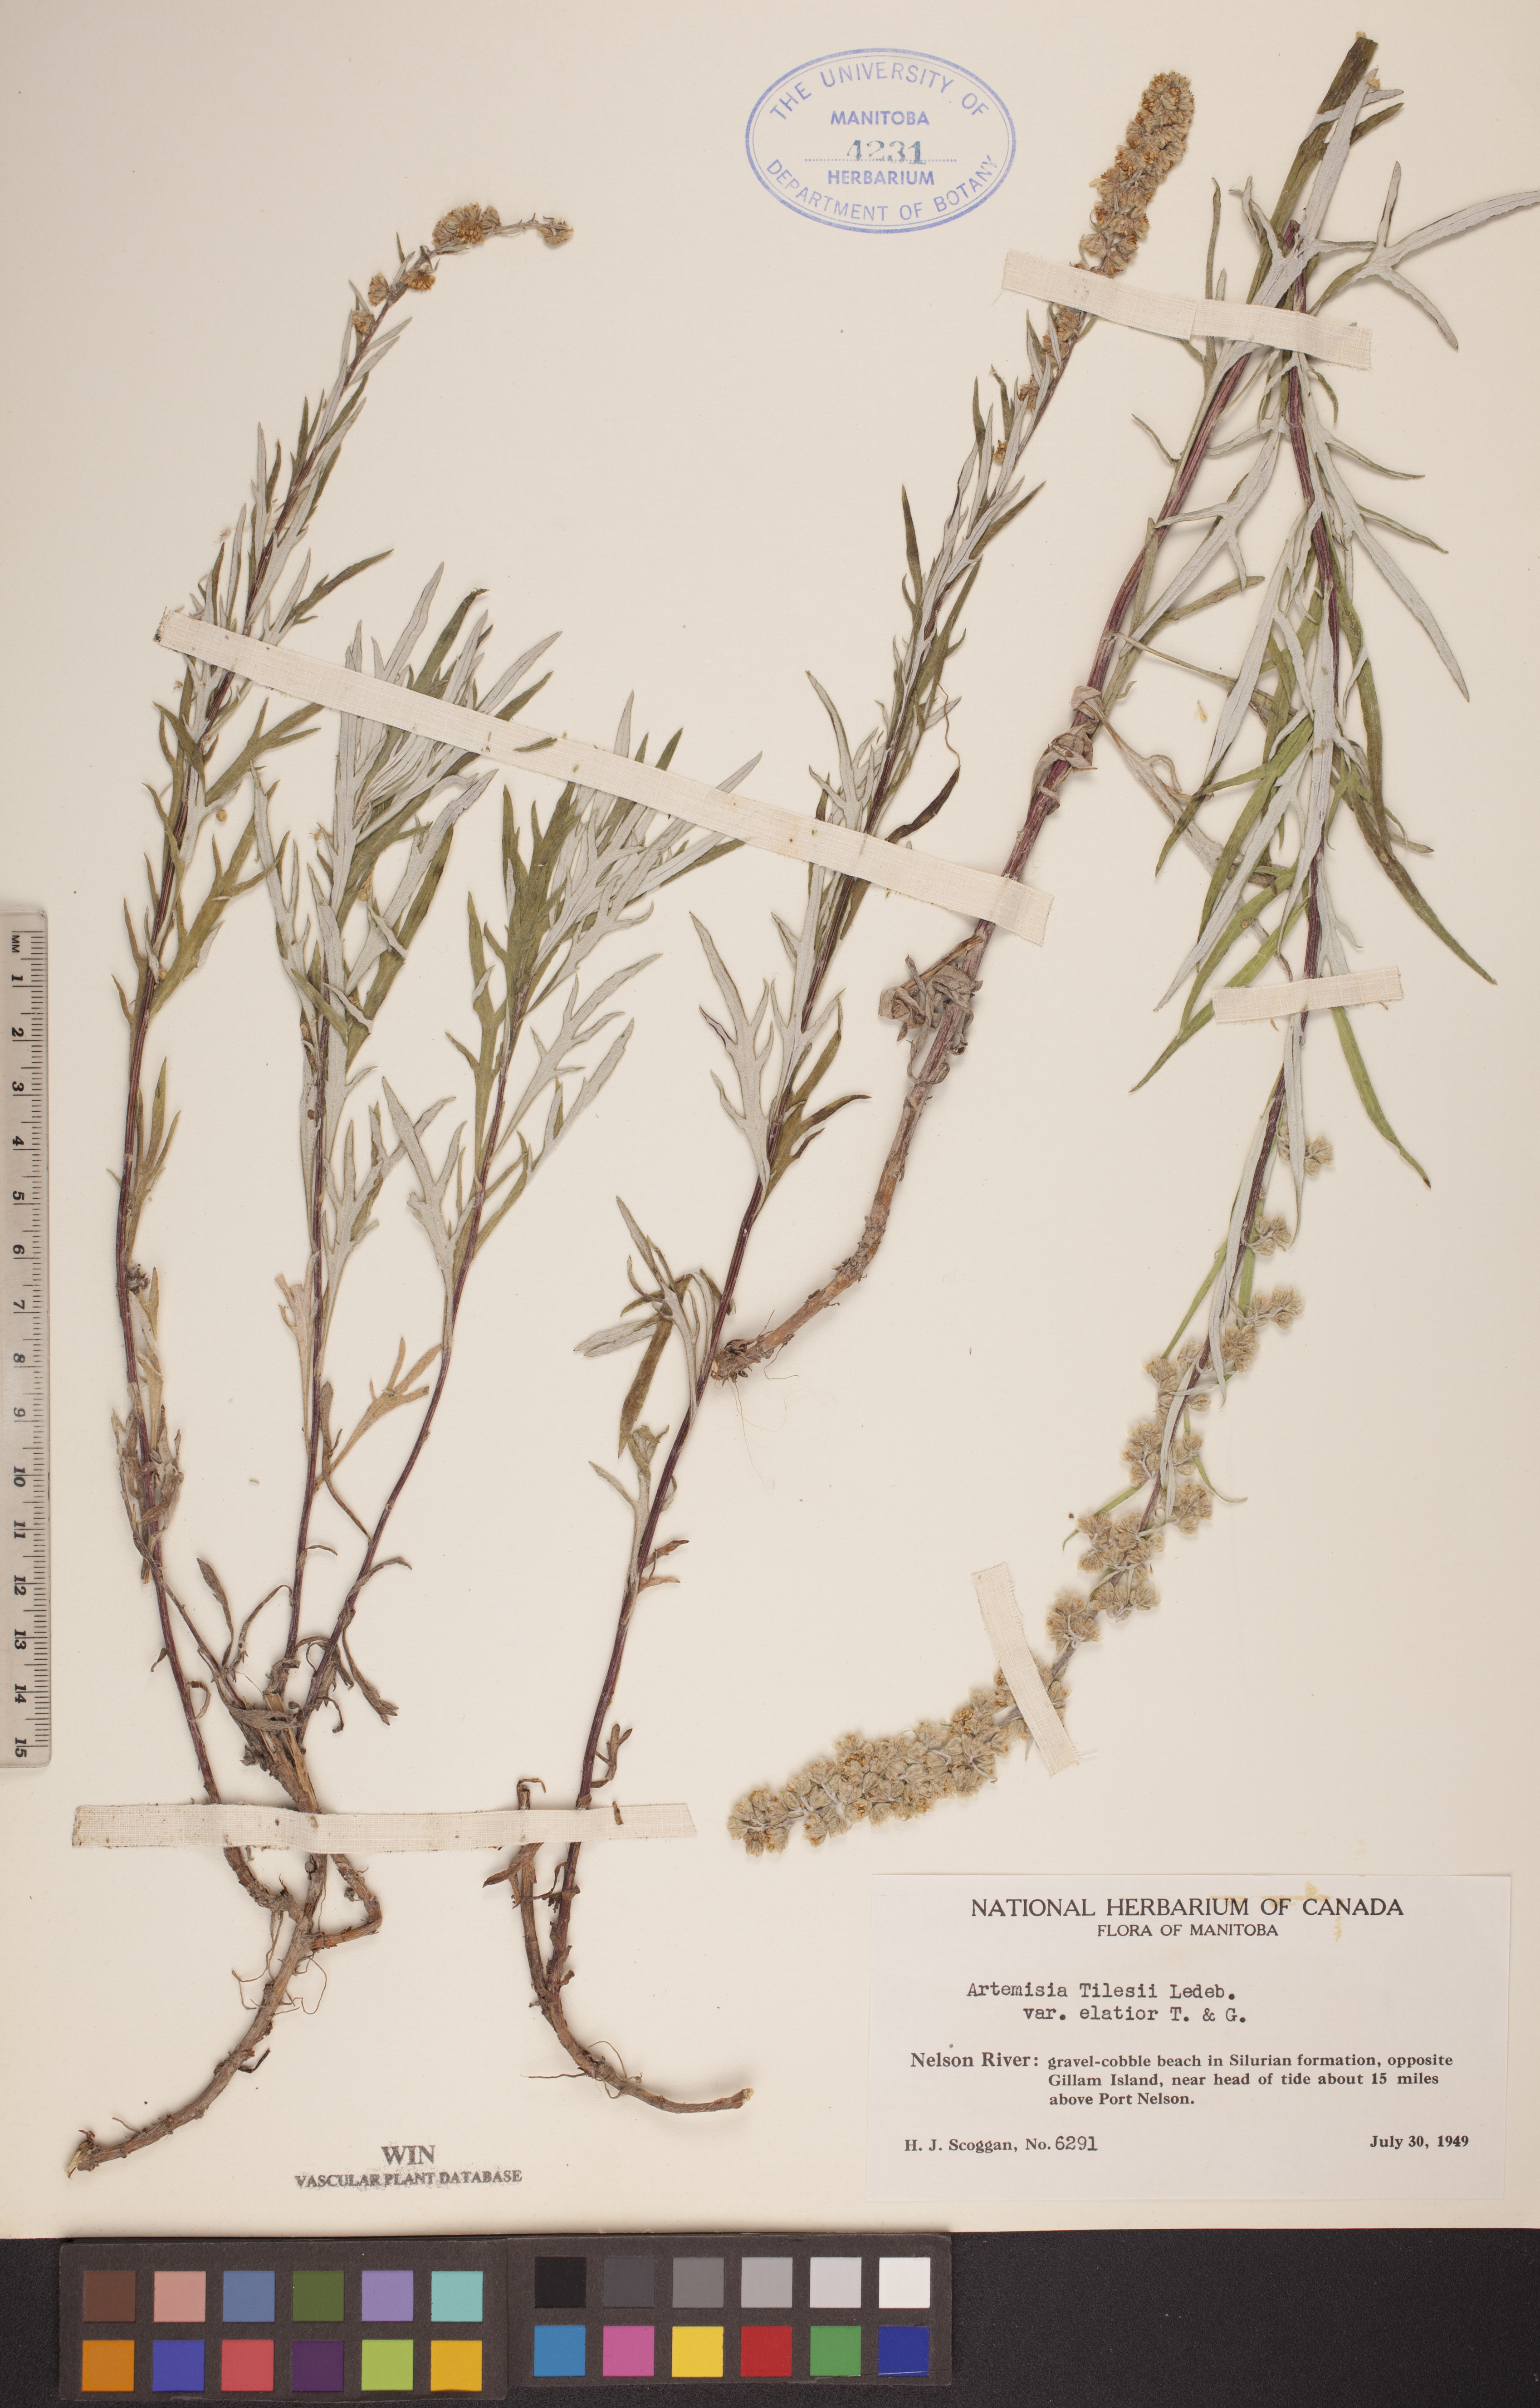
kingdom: Plantae
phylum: Tracheophyta
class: Magnoliopsida
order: Asterales
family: Asteraceae
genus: Artemisia
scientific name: Artemisia tilesii
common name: Aleutian mugwort
